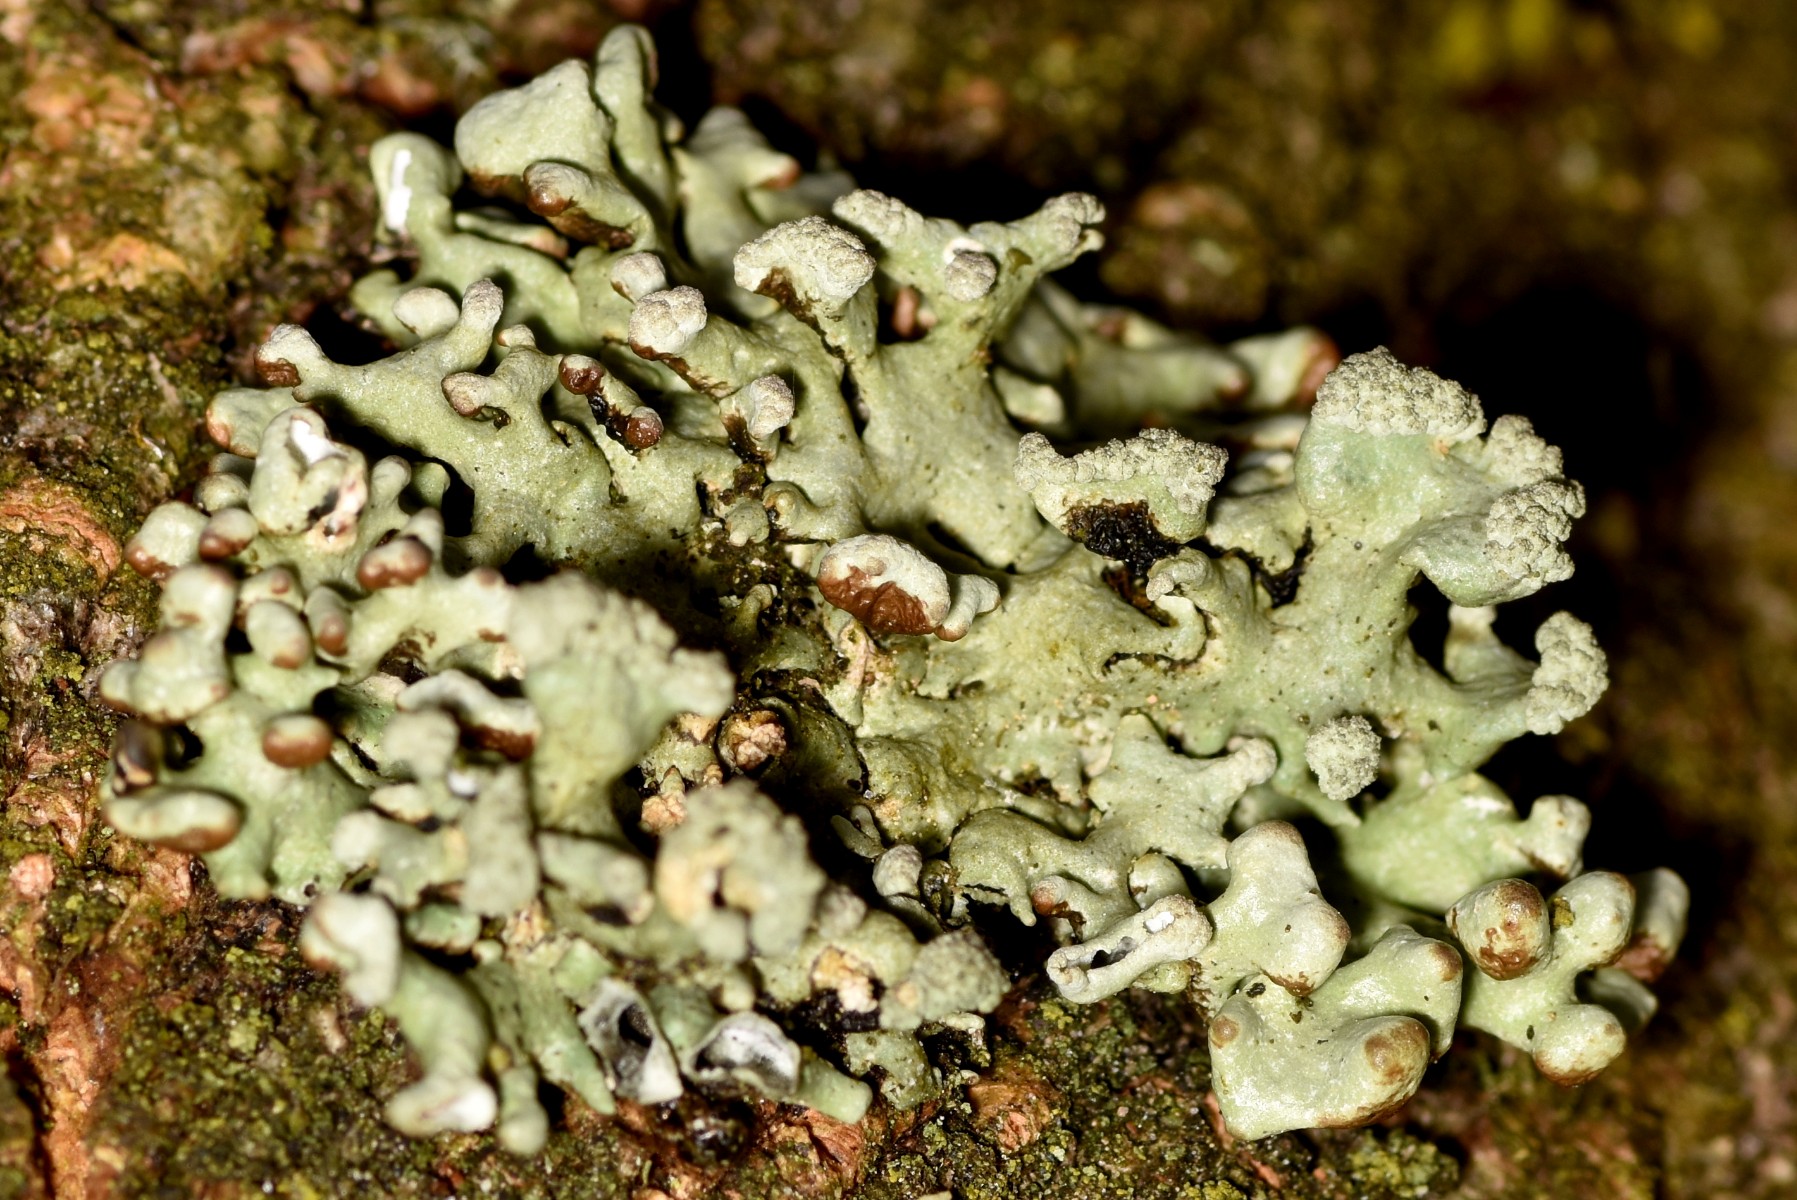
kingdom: Fungi
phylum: Ascomycota
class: Lecanoromycetes
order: Lecanorales
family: Parmeliaceae
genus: Hypogymnia
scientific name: Hypogymnia tubulosa
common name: finger-kvistlav
